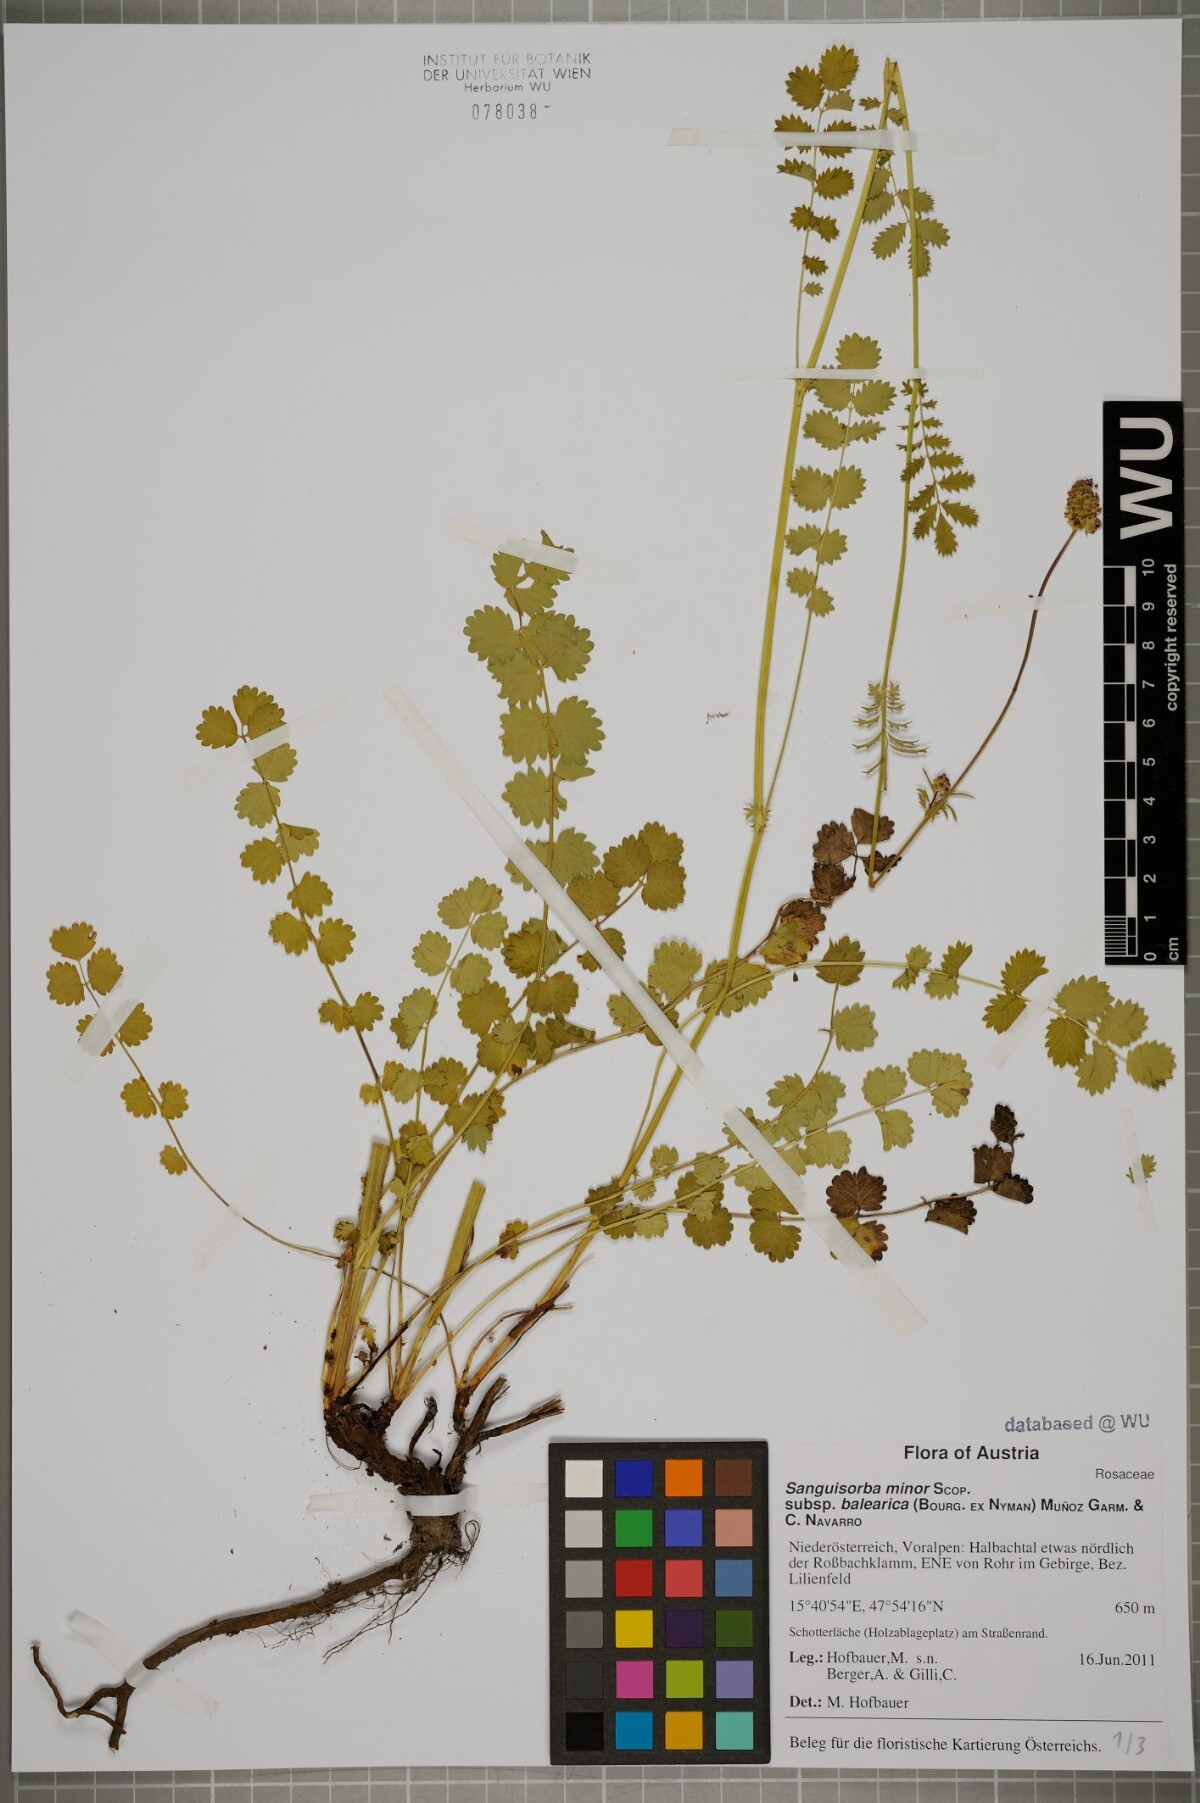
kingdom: Plantae
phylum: Tracheophyta
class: Magnoliopsida
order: Rosales
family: Rosaceae
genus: Poterium
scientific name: Poterium sanguisorba
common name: Salad burnet
